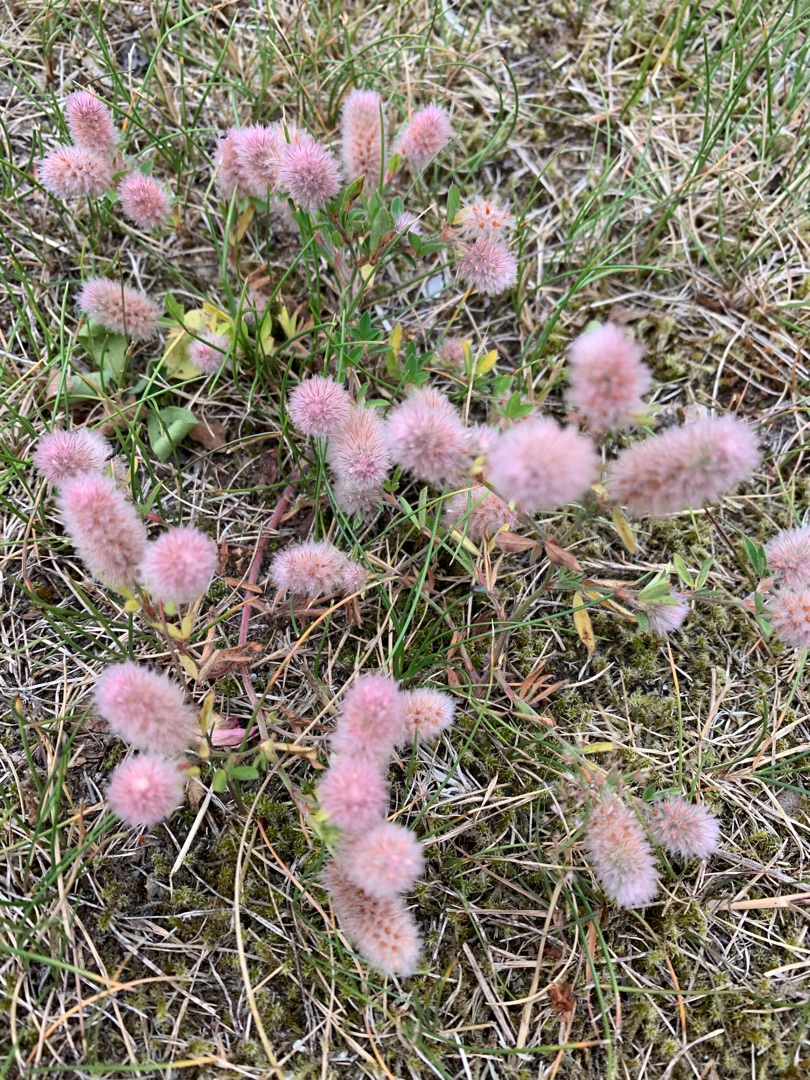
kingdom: Plantae
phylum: Tracheophyta
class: Magnoliopsida
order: Fabales
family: Fabaceae
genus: Trifolium
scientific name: Trifolium arvense
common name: Hare-kløver
